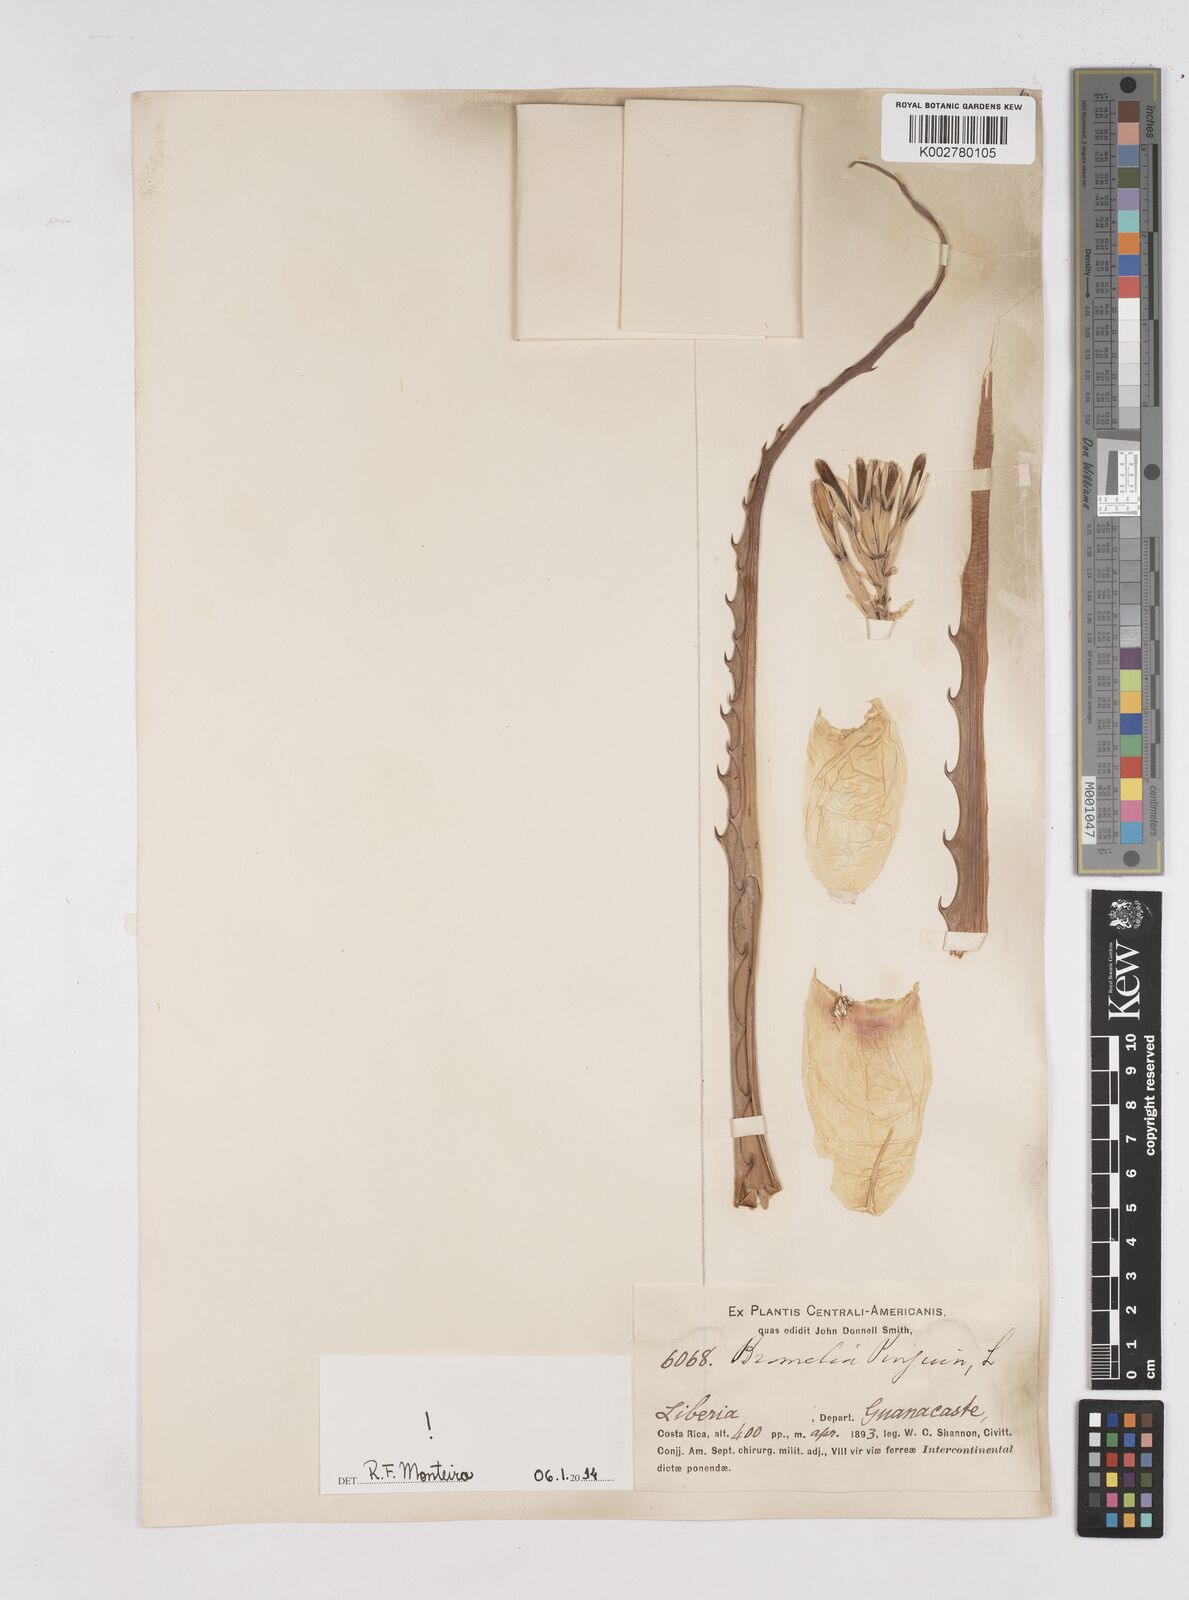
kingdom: Plantae
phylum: Tracheophyta
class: Liliopsida
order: Poales
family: Bromeliaceae
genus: Bromelia
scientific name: Bromelia pinguin
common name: Pinguin
